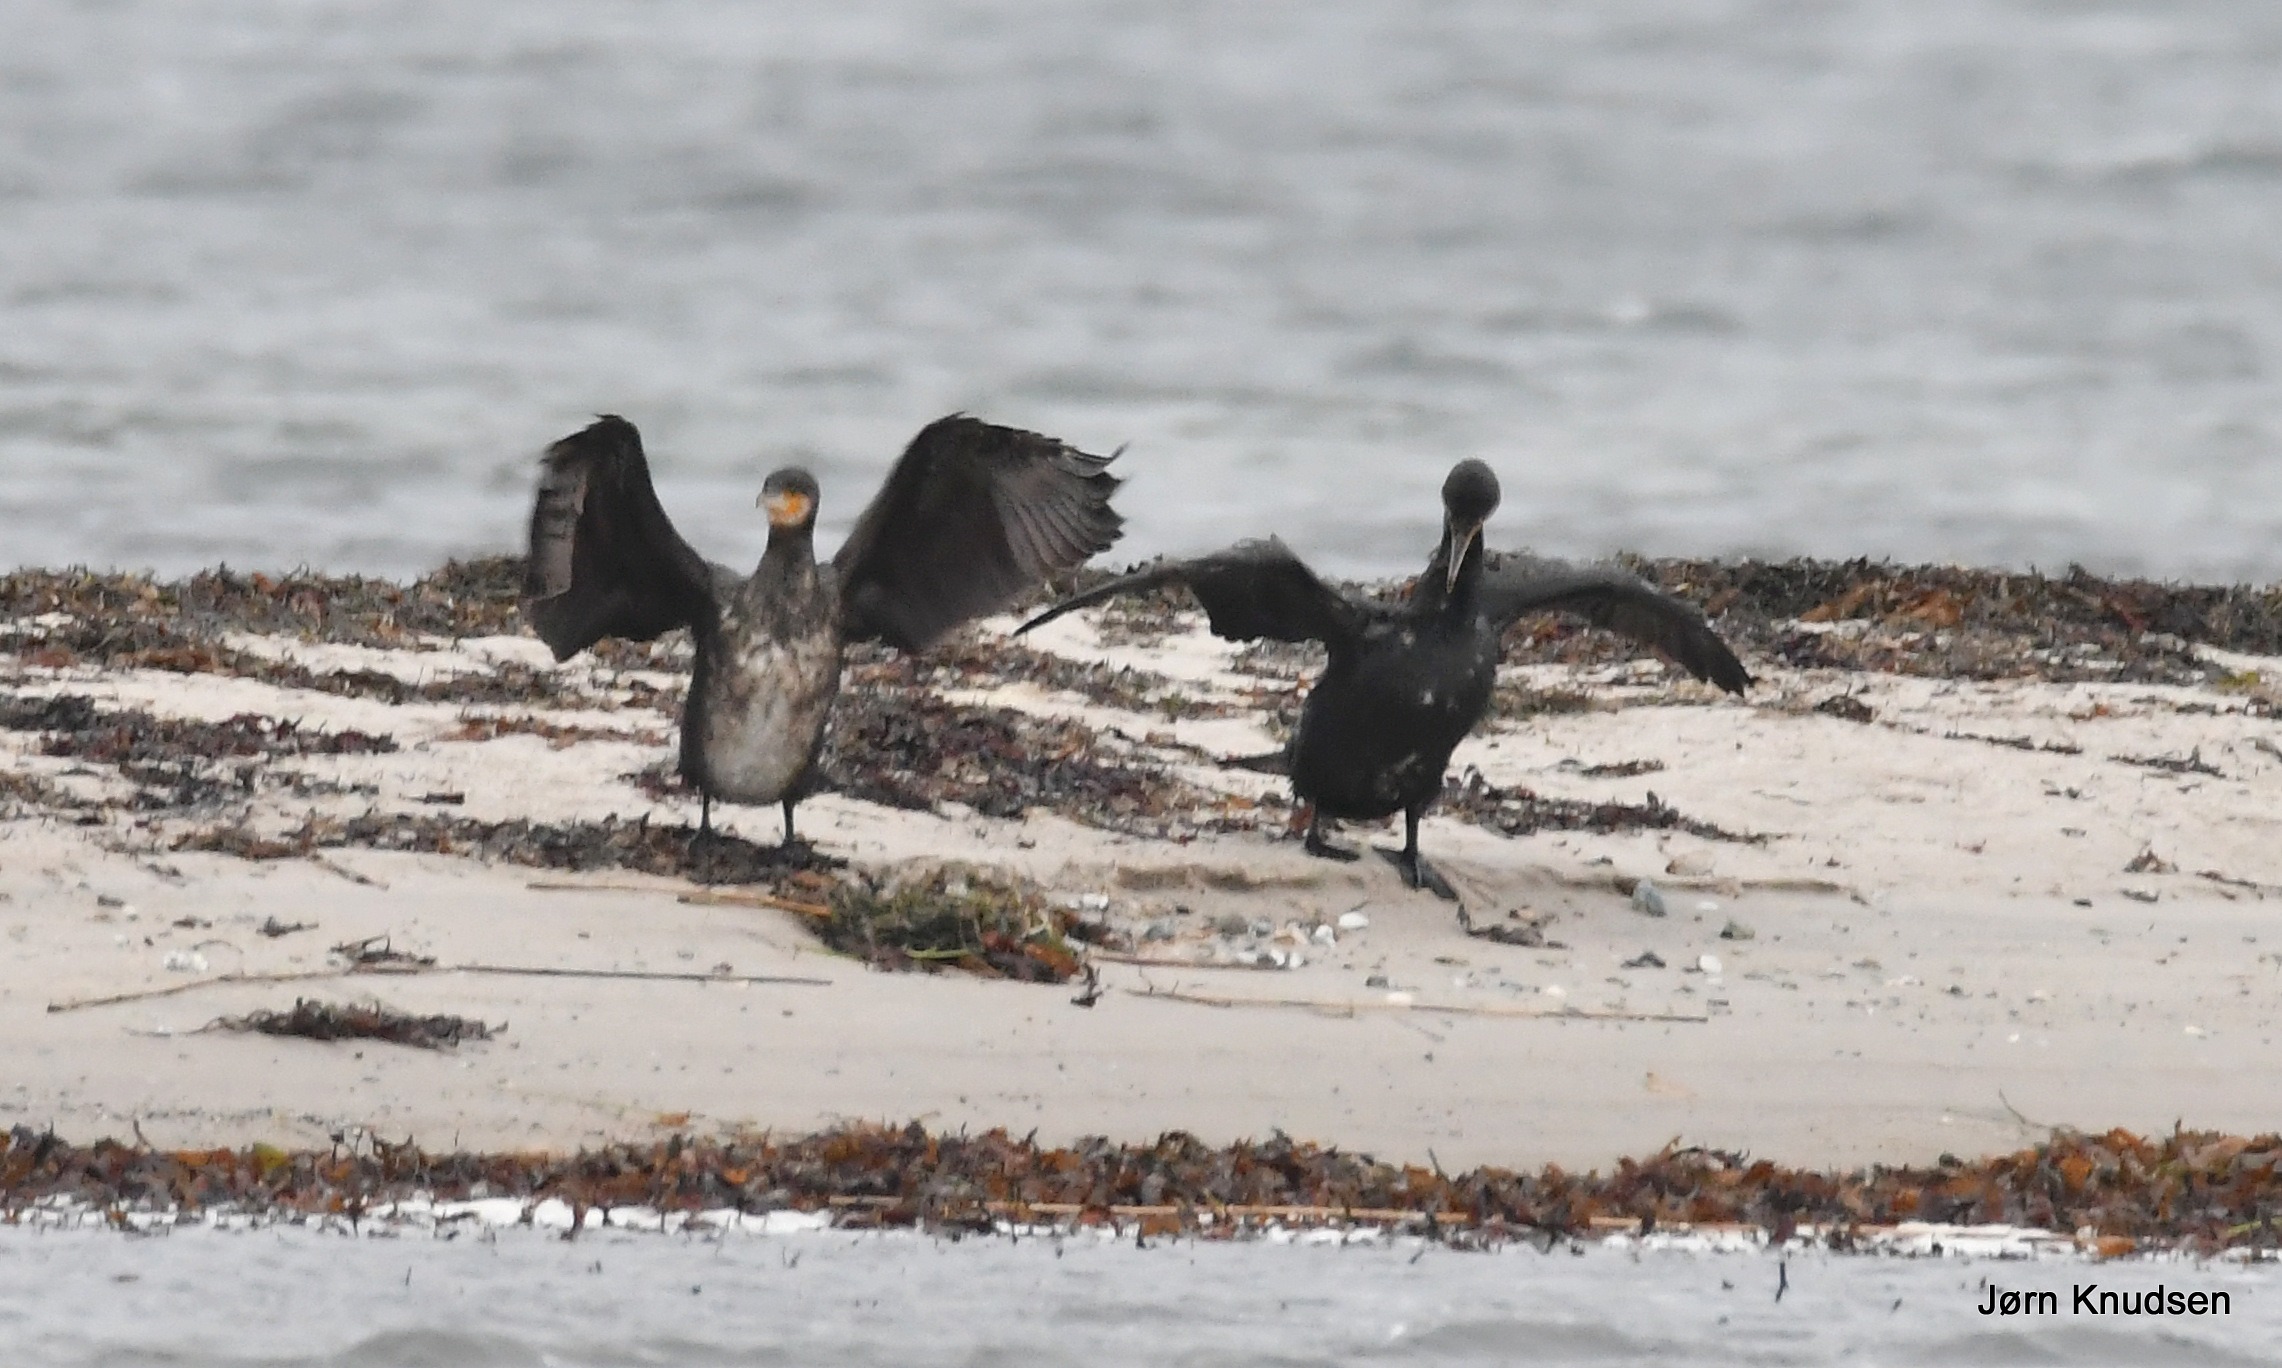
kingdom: Animalia
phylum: Chordata
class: Aves
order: Suliformes
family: Phalacrocoracidae
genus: Phalacrocorax
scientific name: Phalacrocorax carbo
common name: Skarv
